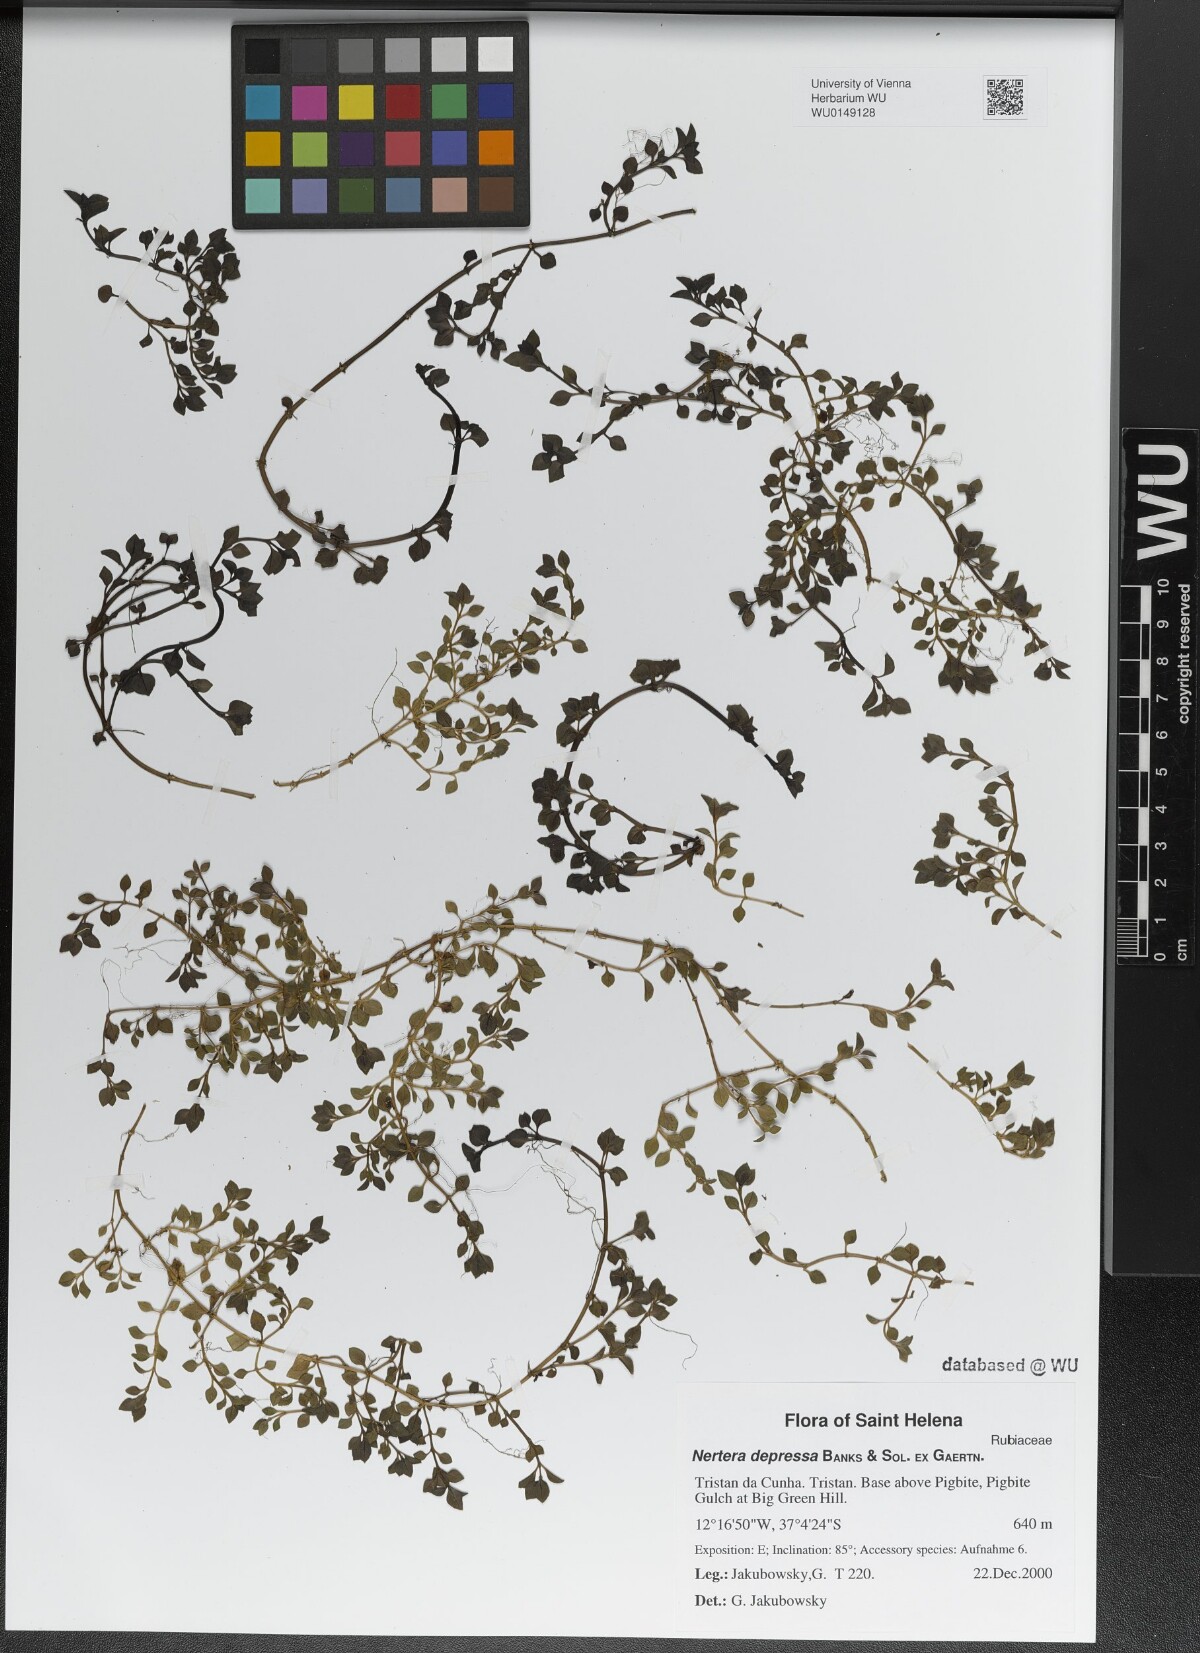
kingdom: Plantae
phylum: Tracheophyta
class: Magnoliopsida
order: Gentianales
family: Rubiaceae
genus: Nertera
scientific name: Nertera granadensis
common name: Beadplant
